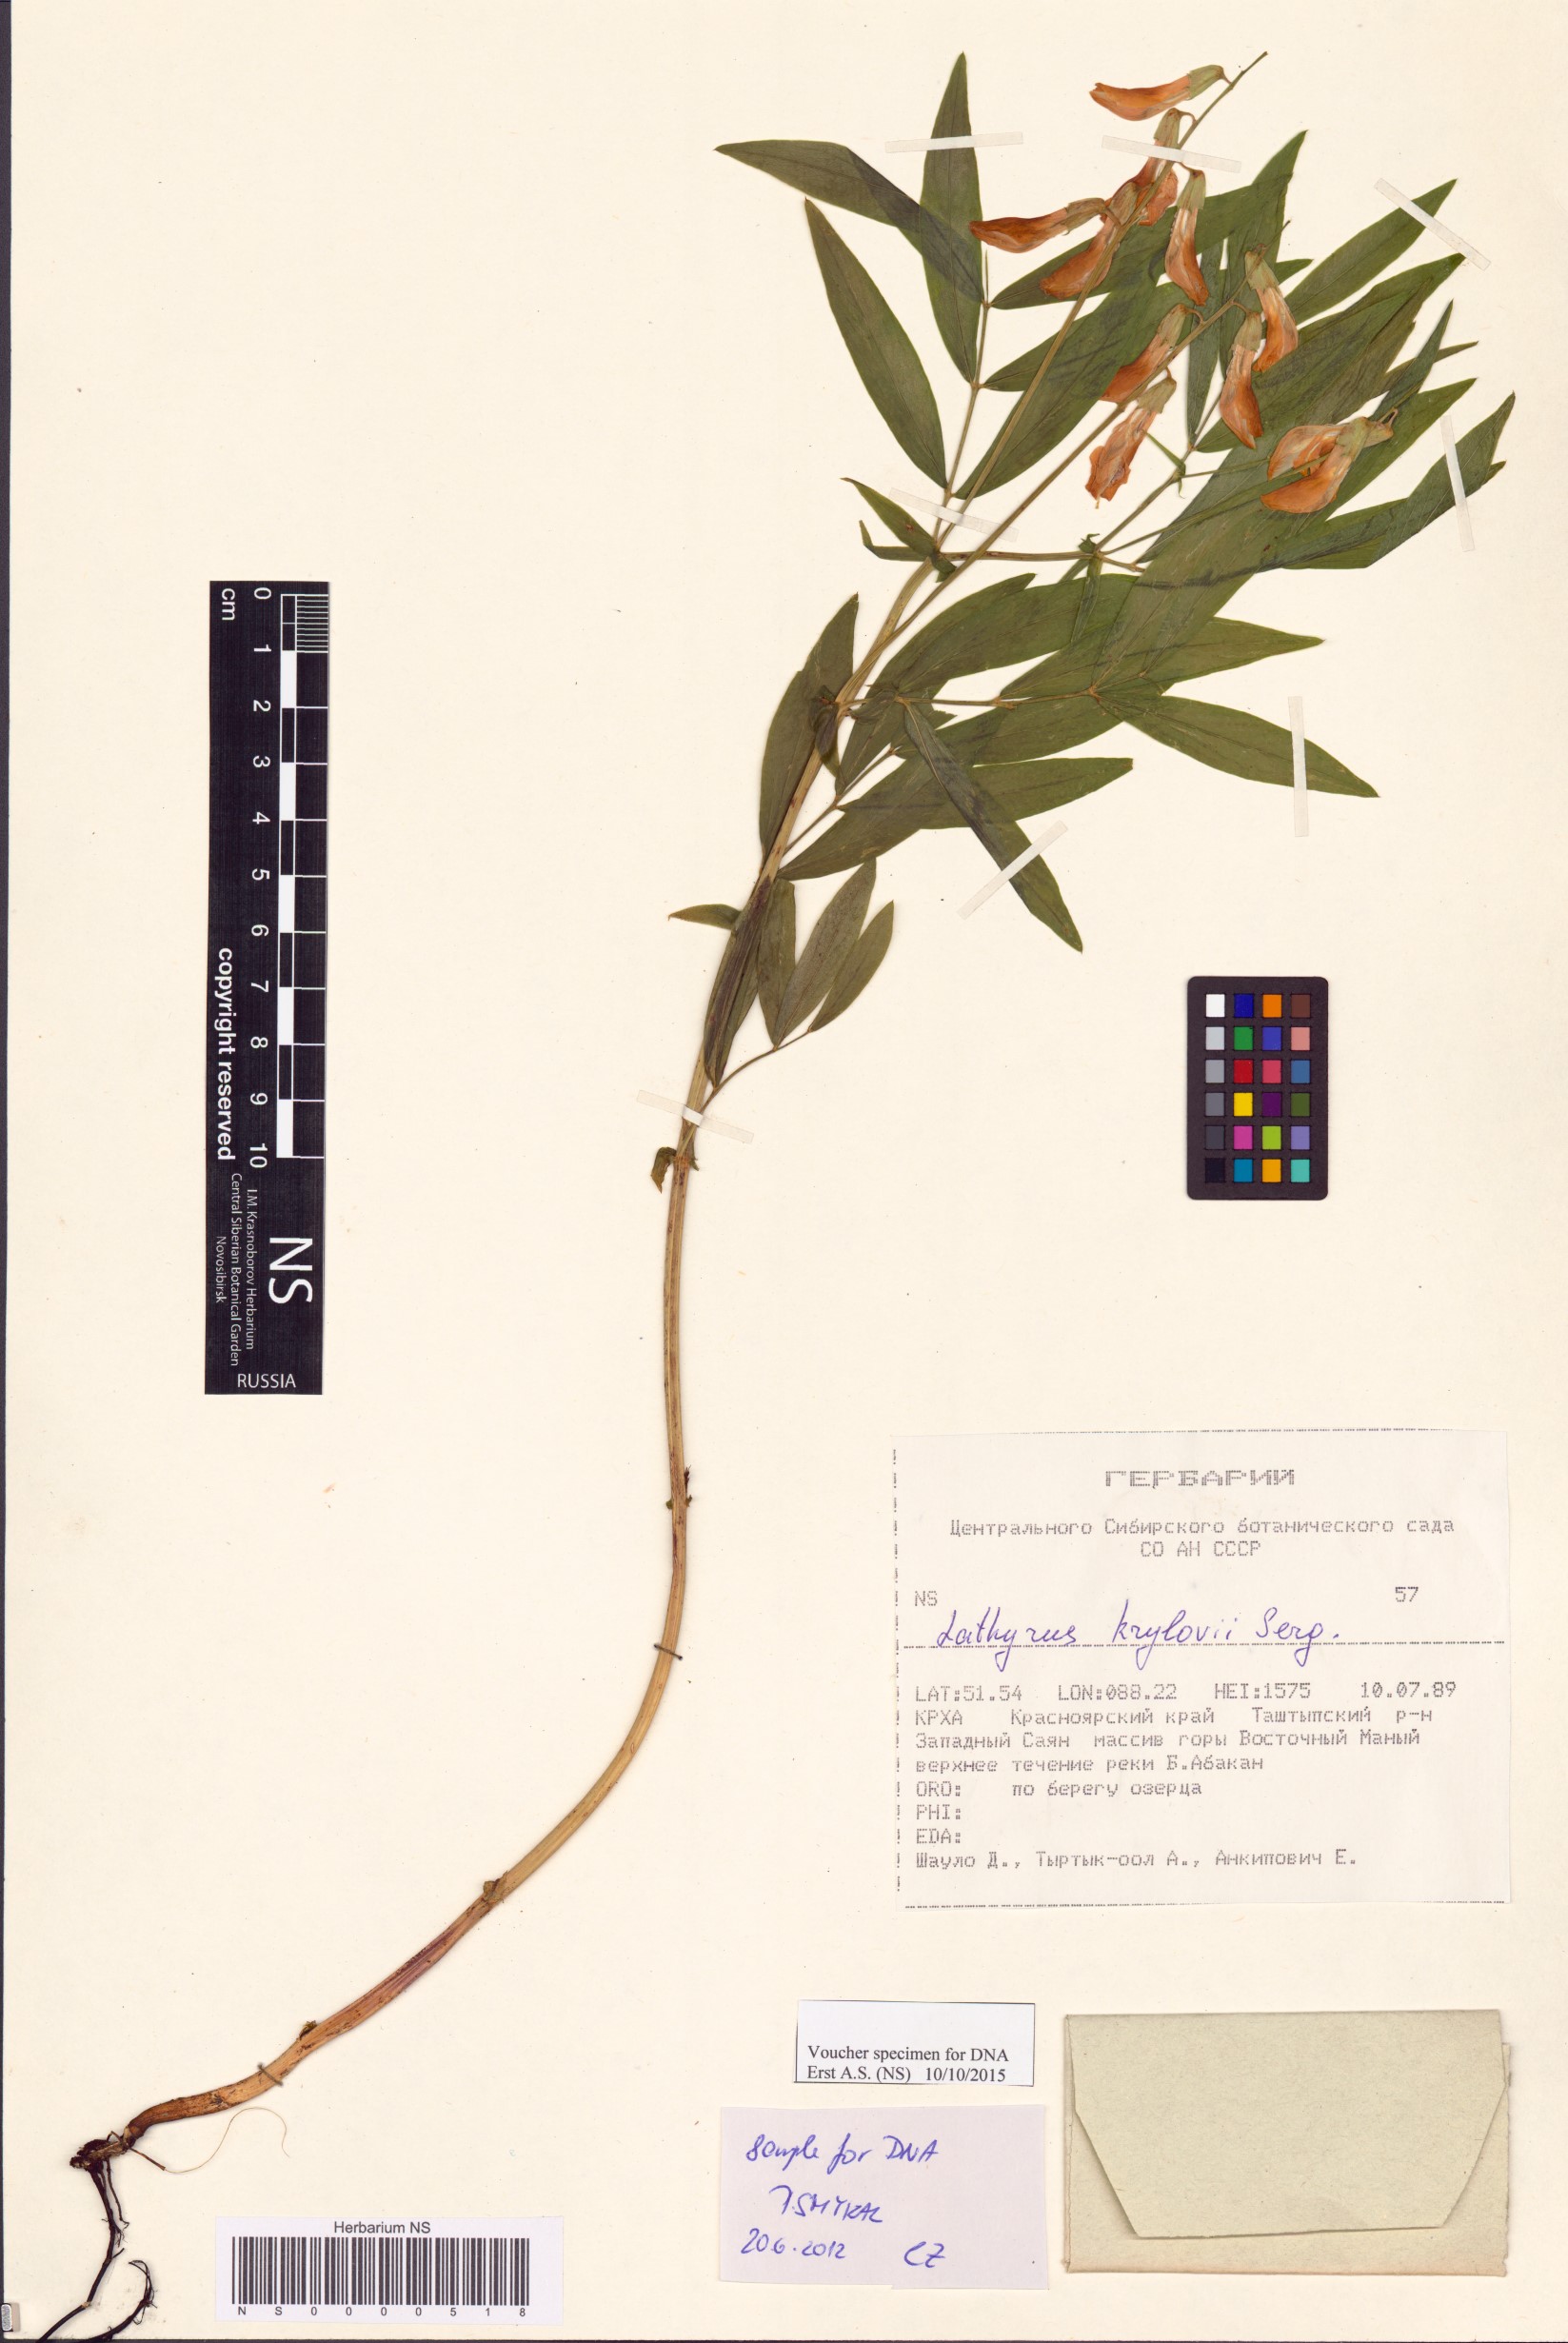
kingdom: Plantae
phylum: Tracheophyta
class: Magnoliopsida
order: Fabales
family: Fabaceae
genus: Lathyrus
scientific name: Lathyrus krylovii
